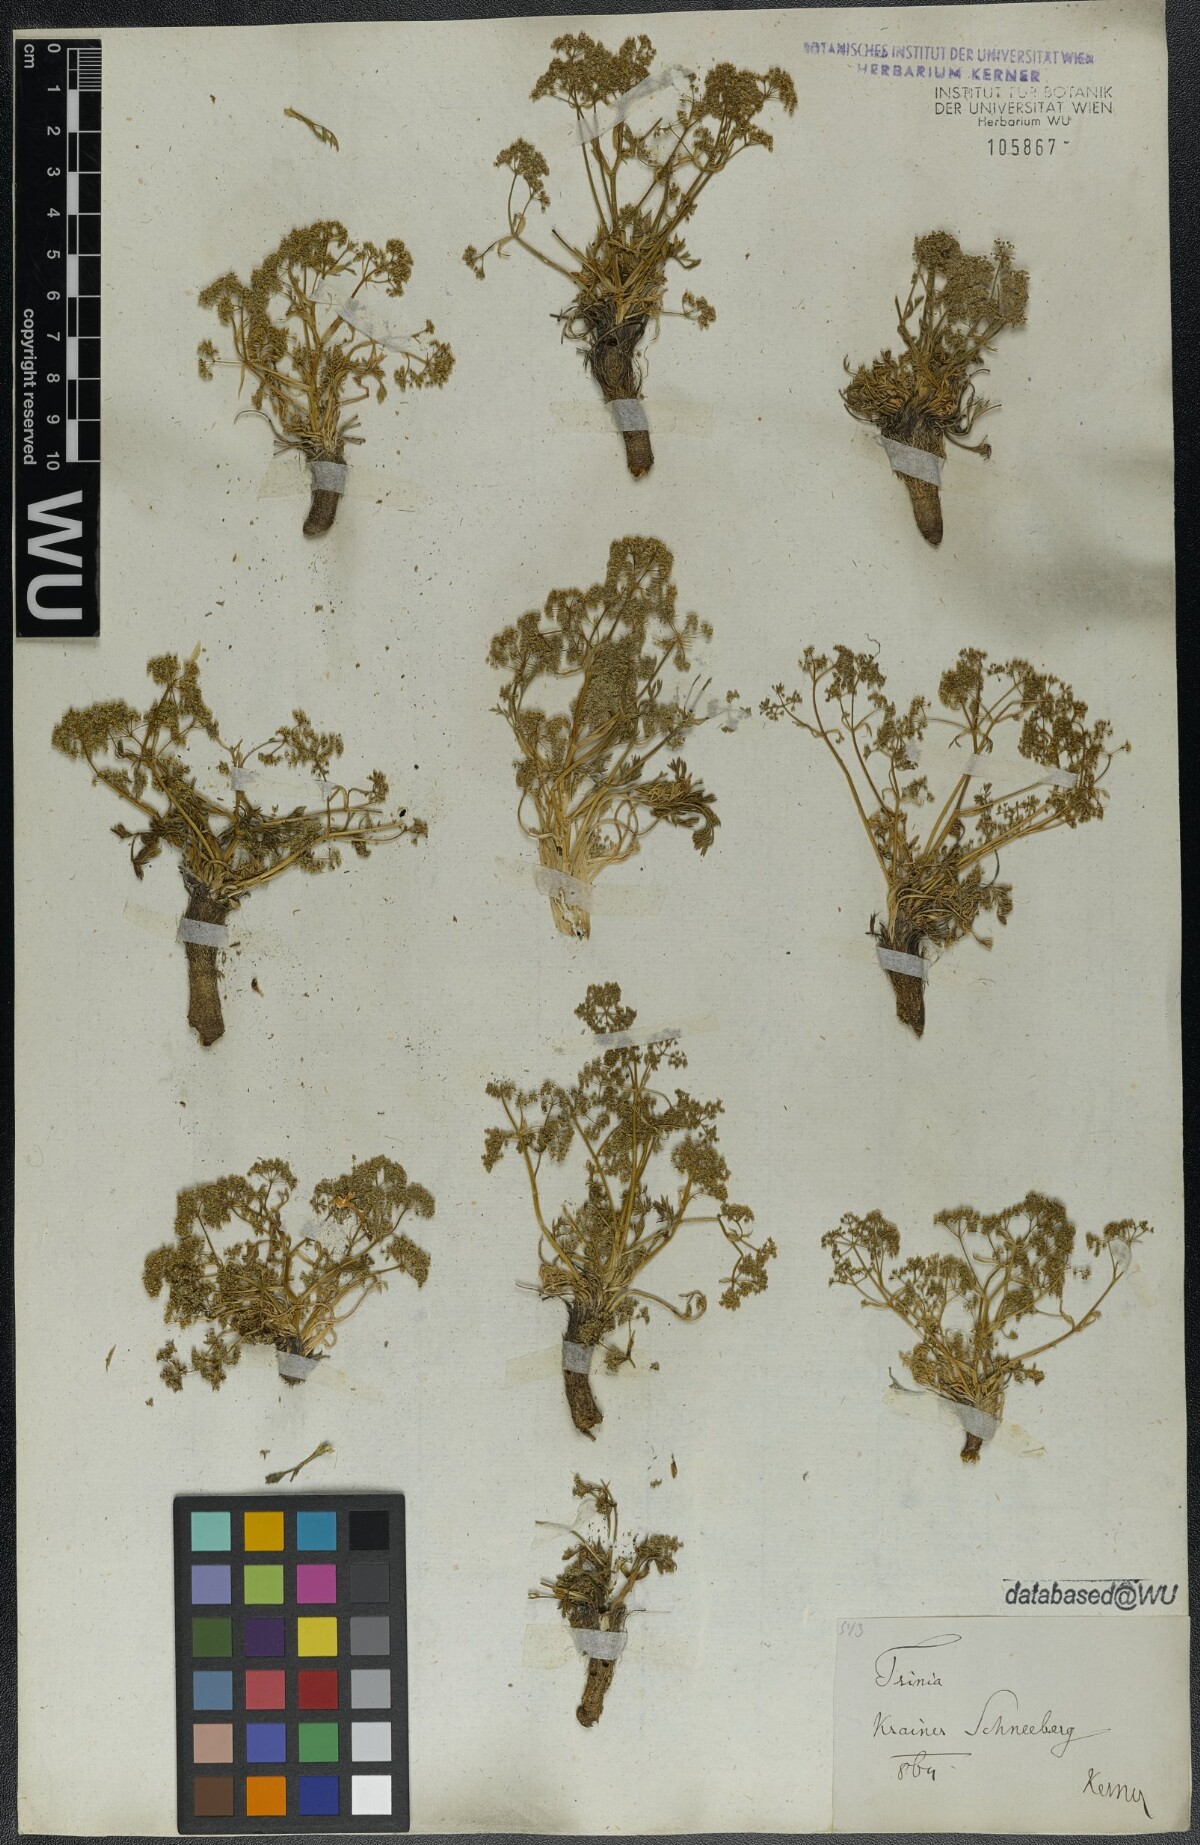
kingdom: Plantae
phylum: Tracheophyta
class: Magnoliopsida
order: Apiales
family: Apiaceae
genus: Trinia
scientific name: Trinia dalechampii
